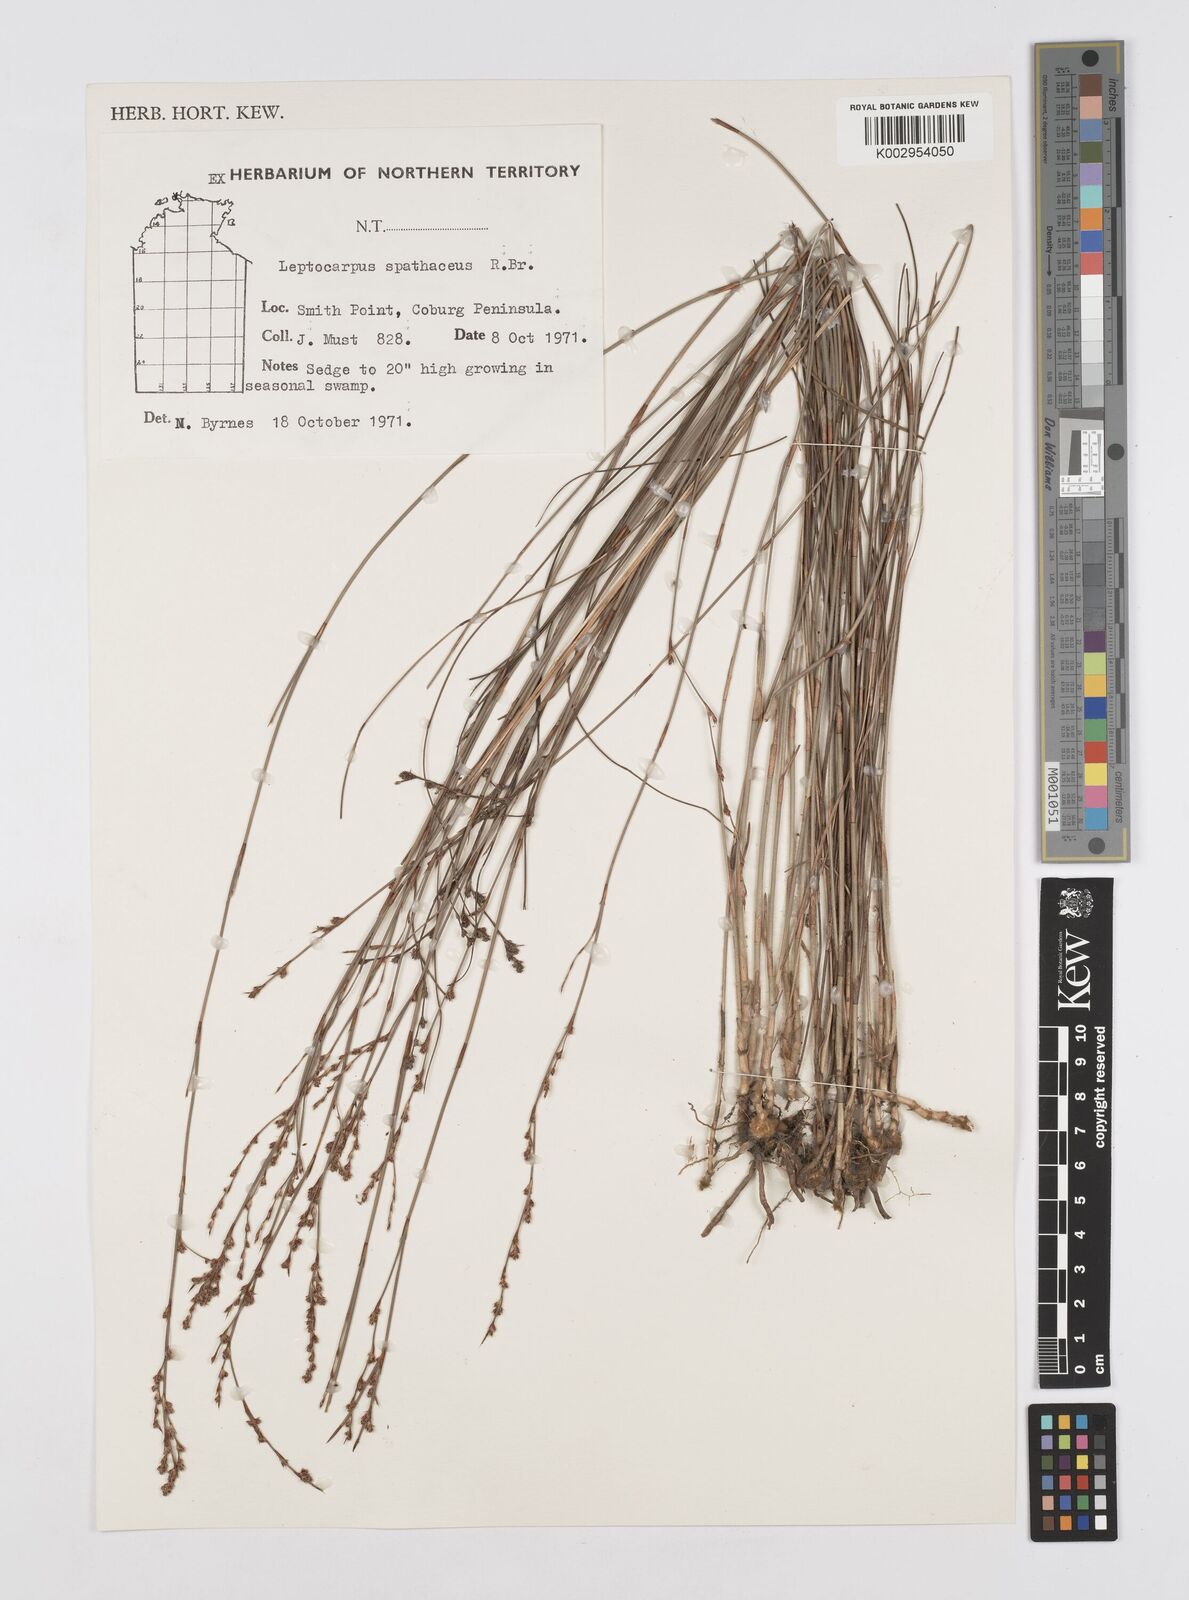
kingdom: Plantae
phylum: Tracheophyta
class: Liliopsida
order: Poales
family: Restionaceae
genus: Dapsilanthus
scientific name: Dapsilanthus spathaceus
